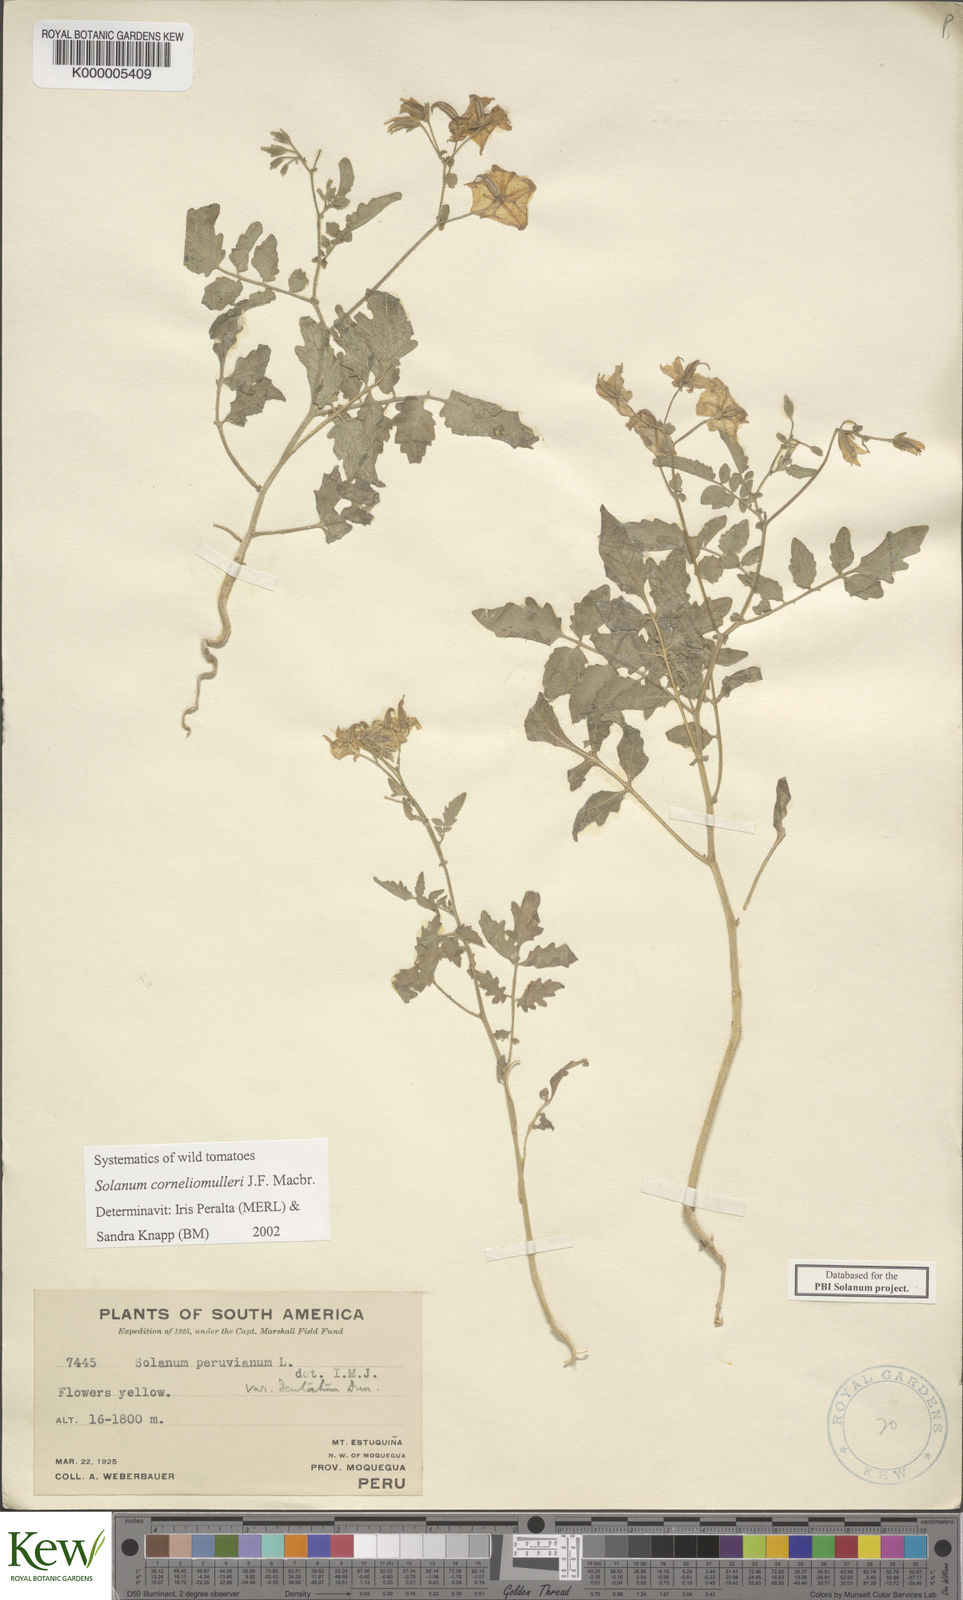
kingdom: Plantae
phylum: Tracheophyta
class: Magnoliopsida
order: Solanales
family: Solanaceae
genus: Solanum
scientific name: Solanum corneliomulleri
